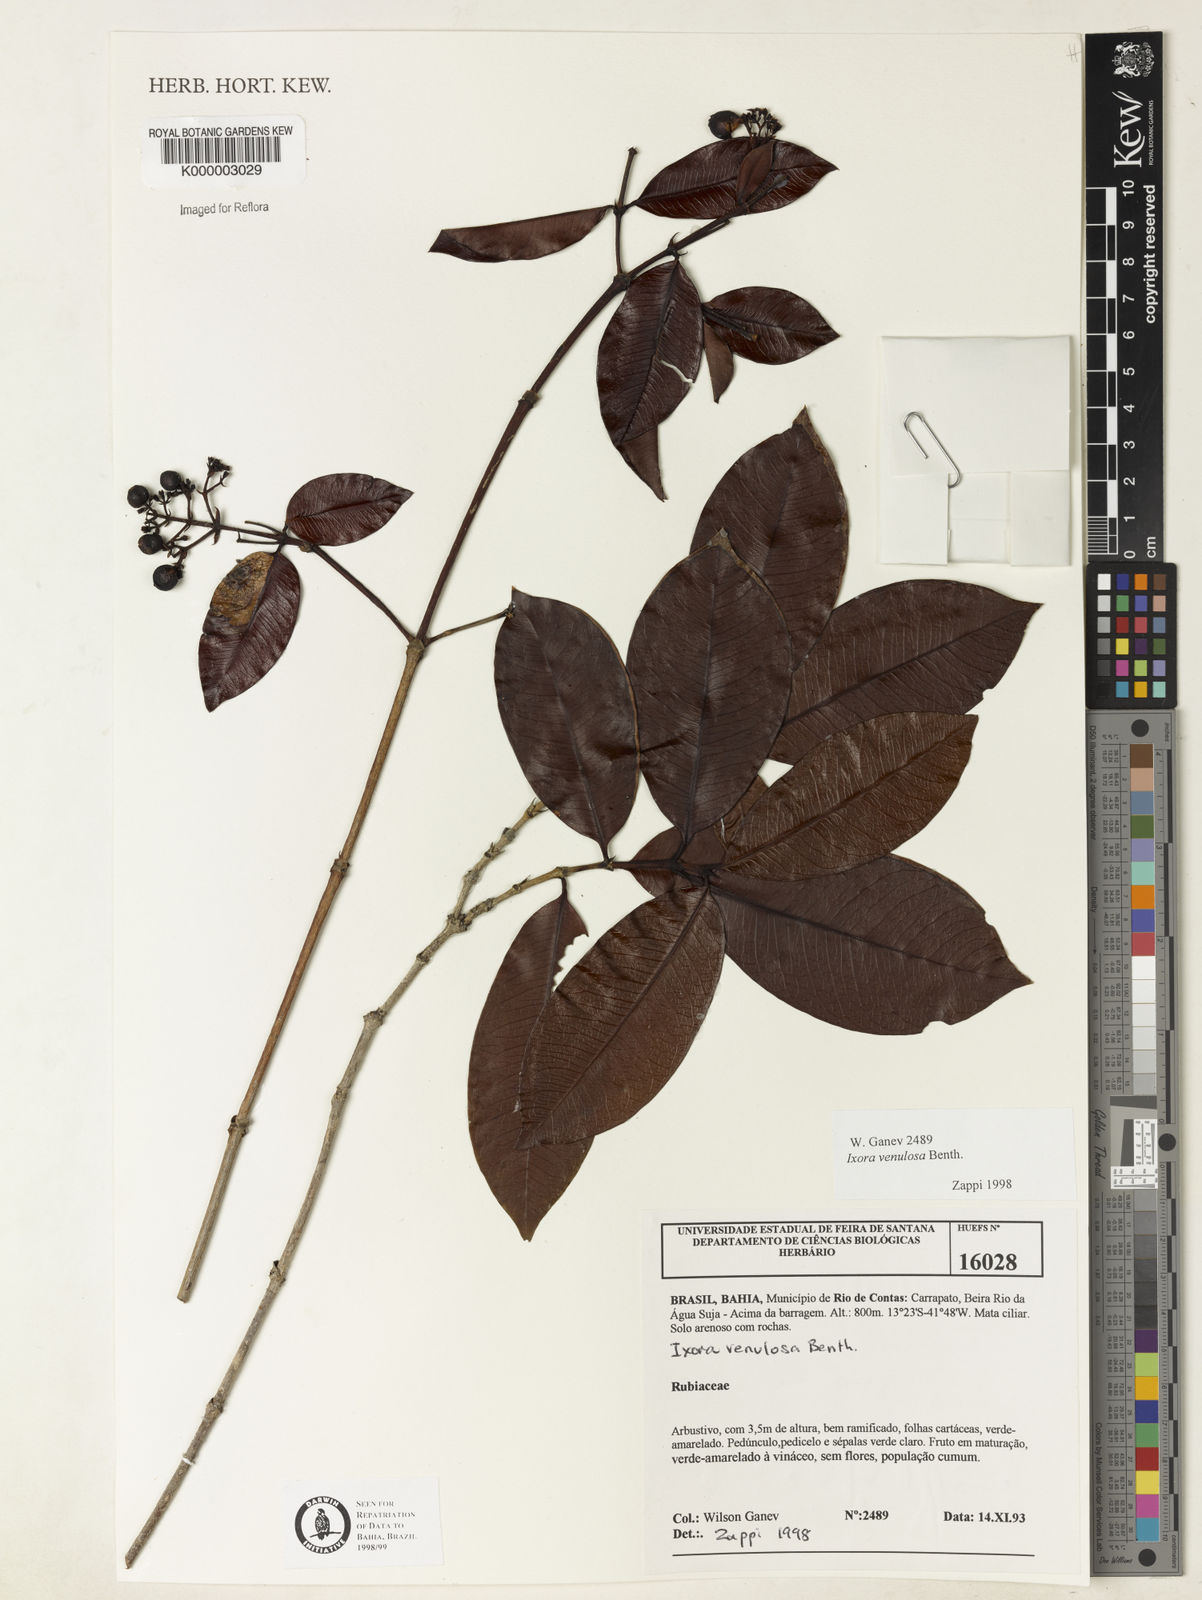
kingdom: Plantae
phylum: Tracheophyta
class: Magnoliopsida
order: Gentianales
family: Rubiaceae
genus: Ixora
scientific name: Ixora venulosa
